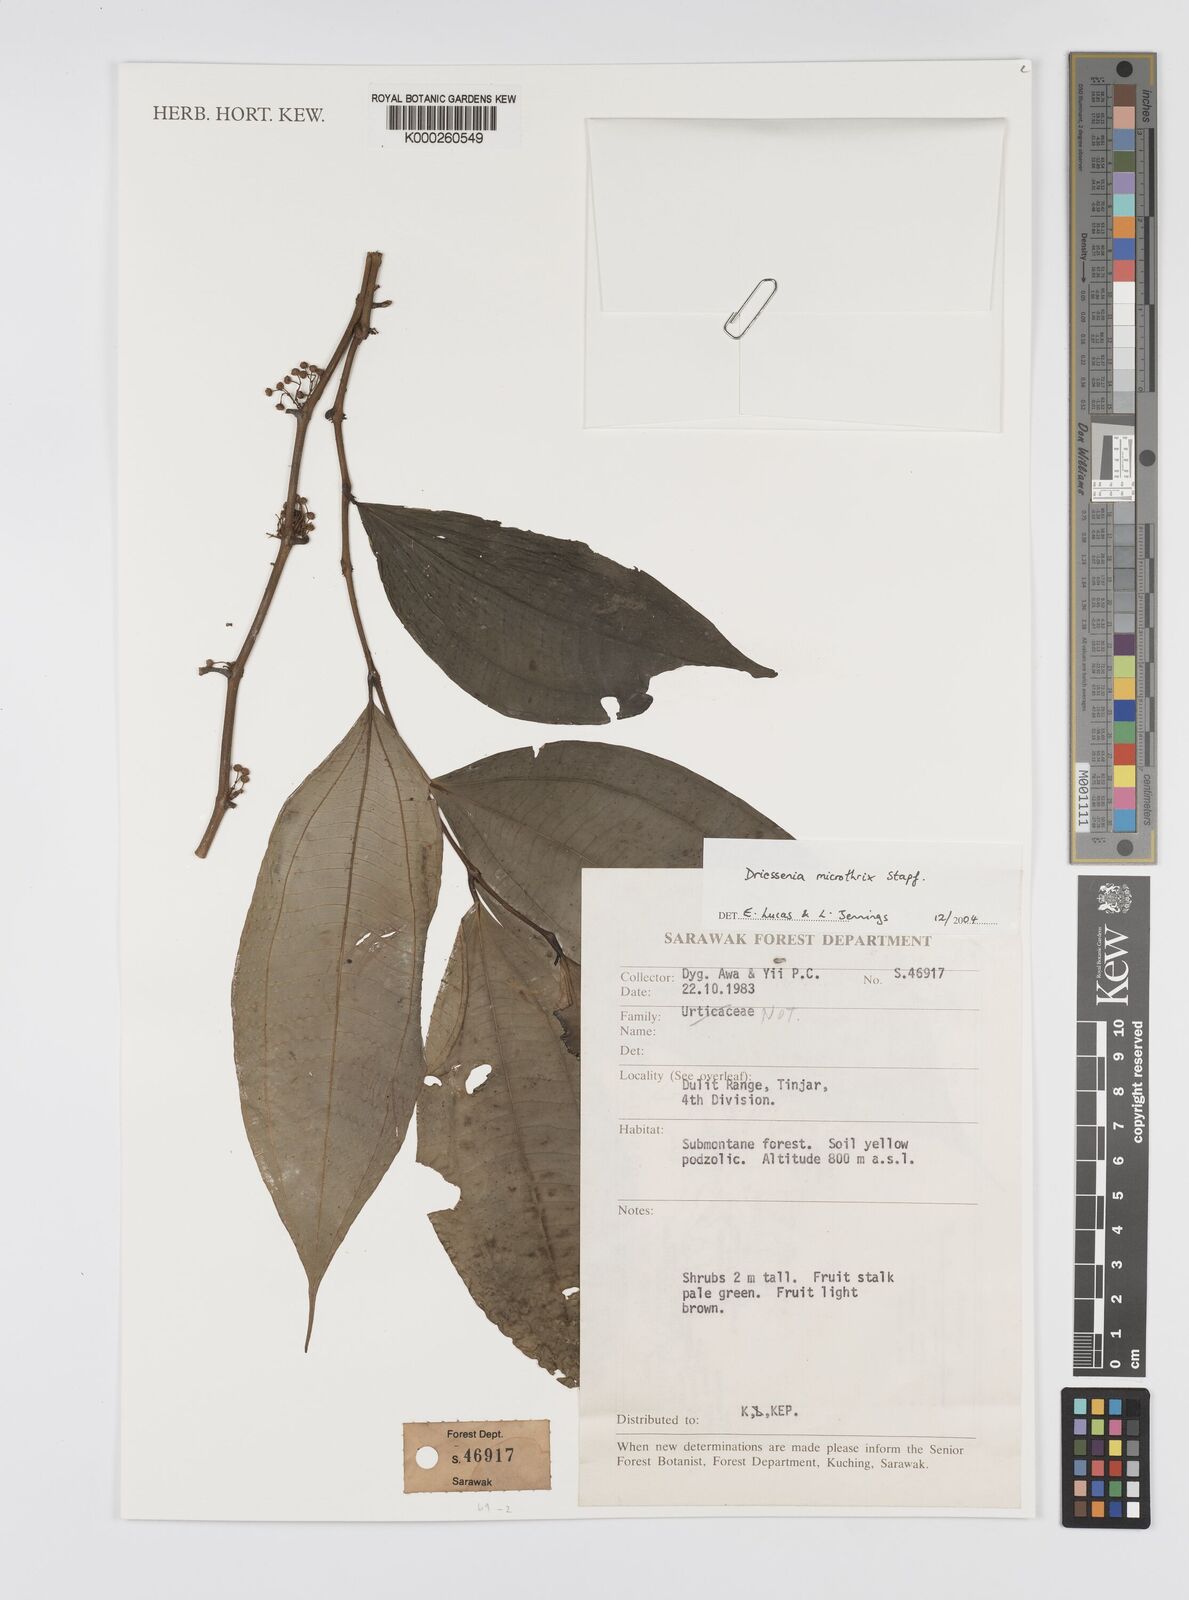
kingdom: Plantae
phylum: Tracheophyta
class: Magnoliopsida
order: Myrtales
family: Melastomataceae
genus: Driessenia
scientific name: Driessenia microthrix
